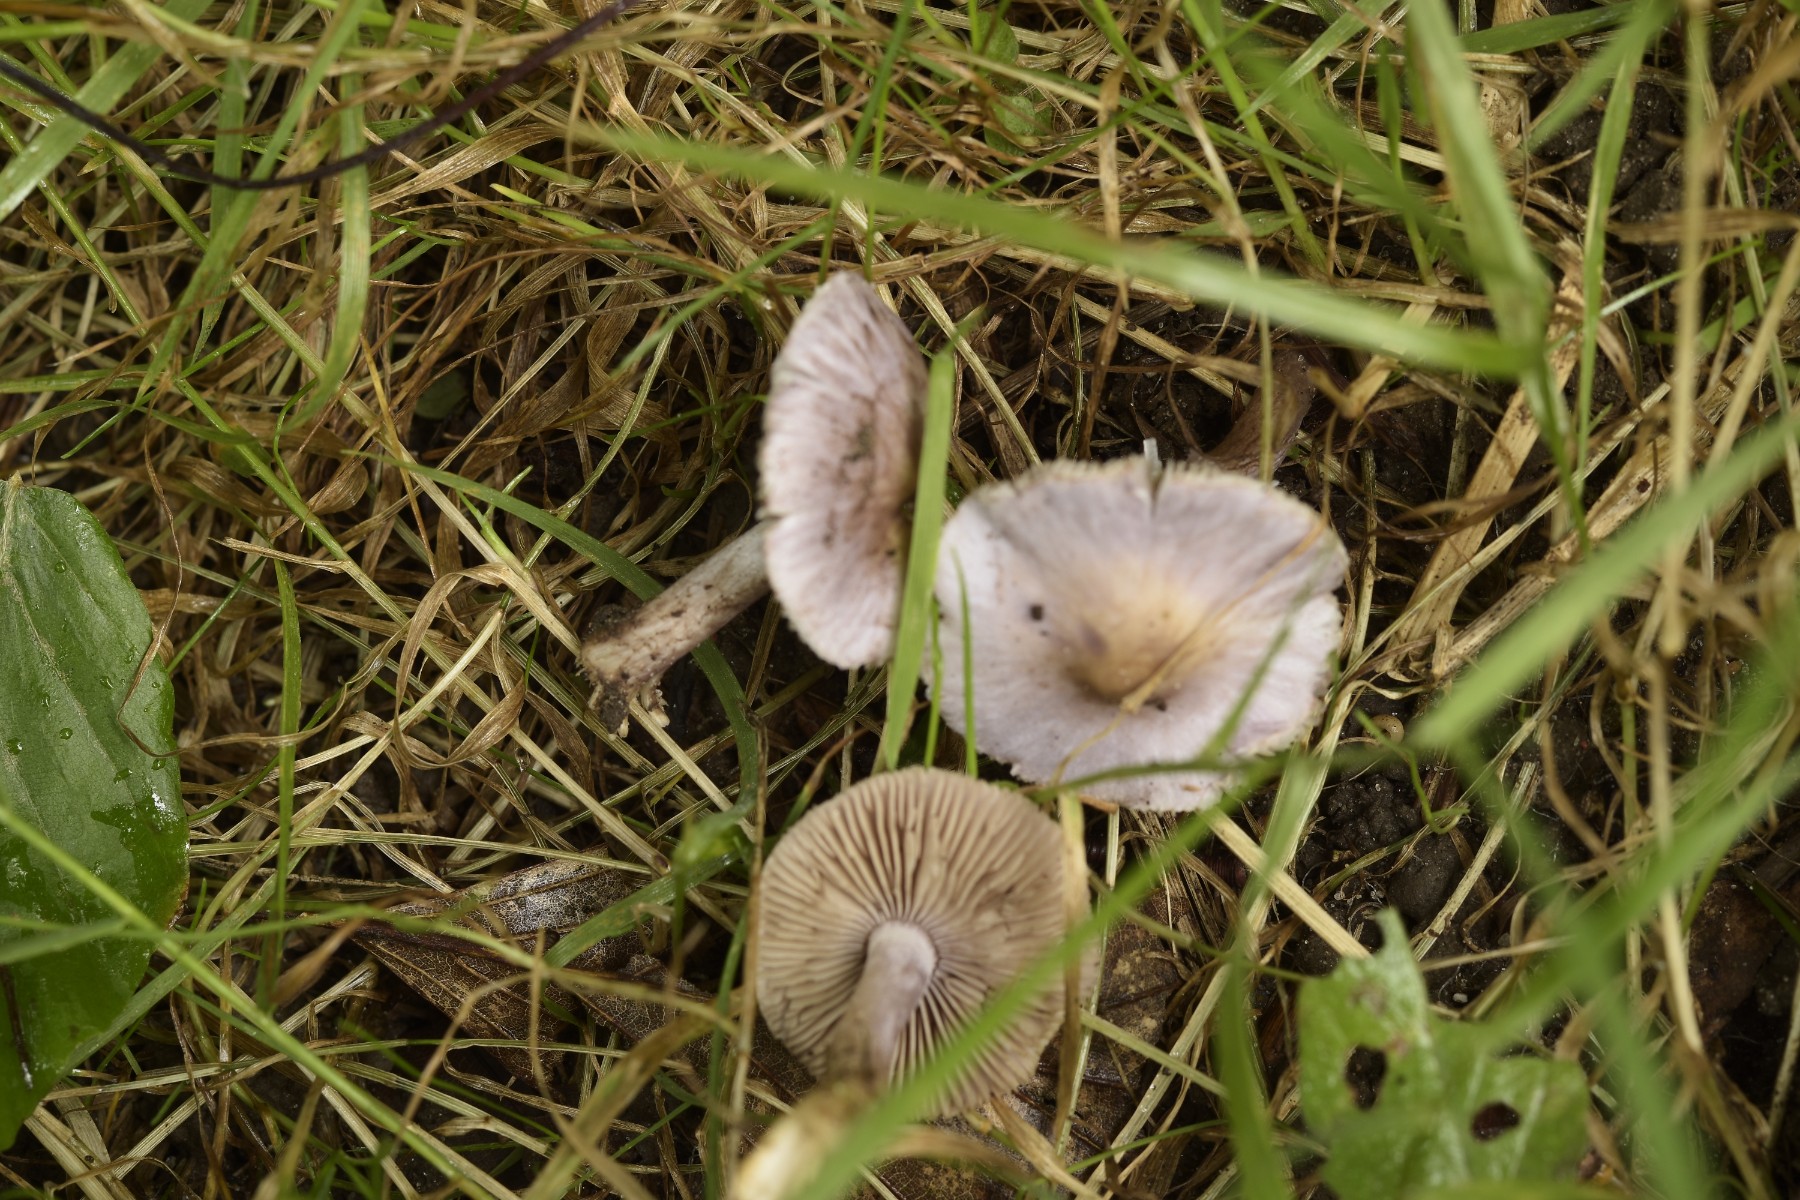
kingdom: Fungi
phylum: Basidiomycota
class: Agaricomycetes
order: Agaricales
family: Inocybaceae
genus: Inocybe
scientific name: Inocybe geophylla
